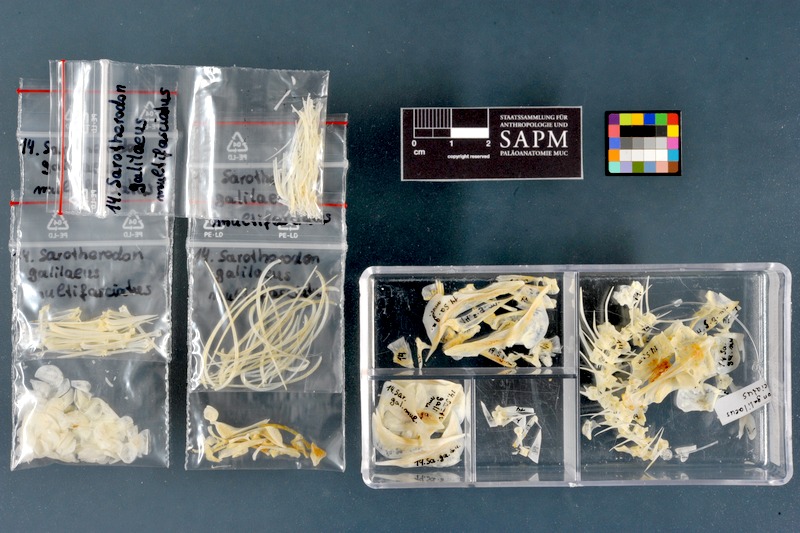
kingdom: Animalia
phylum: Chordata
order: Perciformes
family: Cichlidae
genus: Sarotherodon
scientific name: Sarotherodon galilaeus
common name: Mango tilapia
